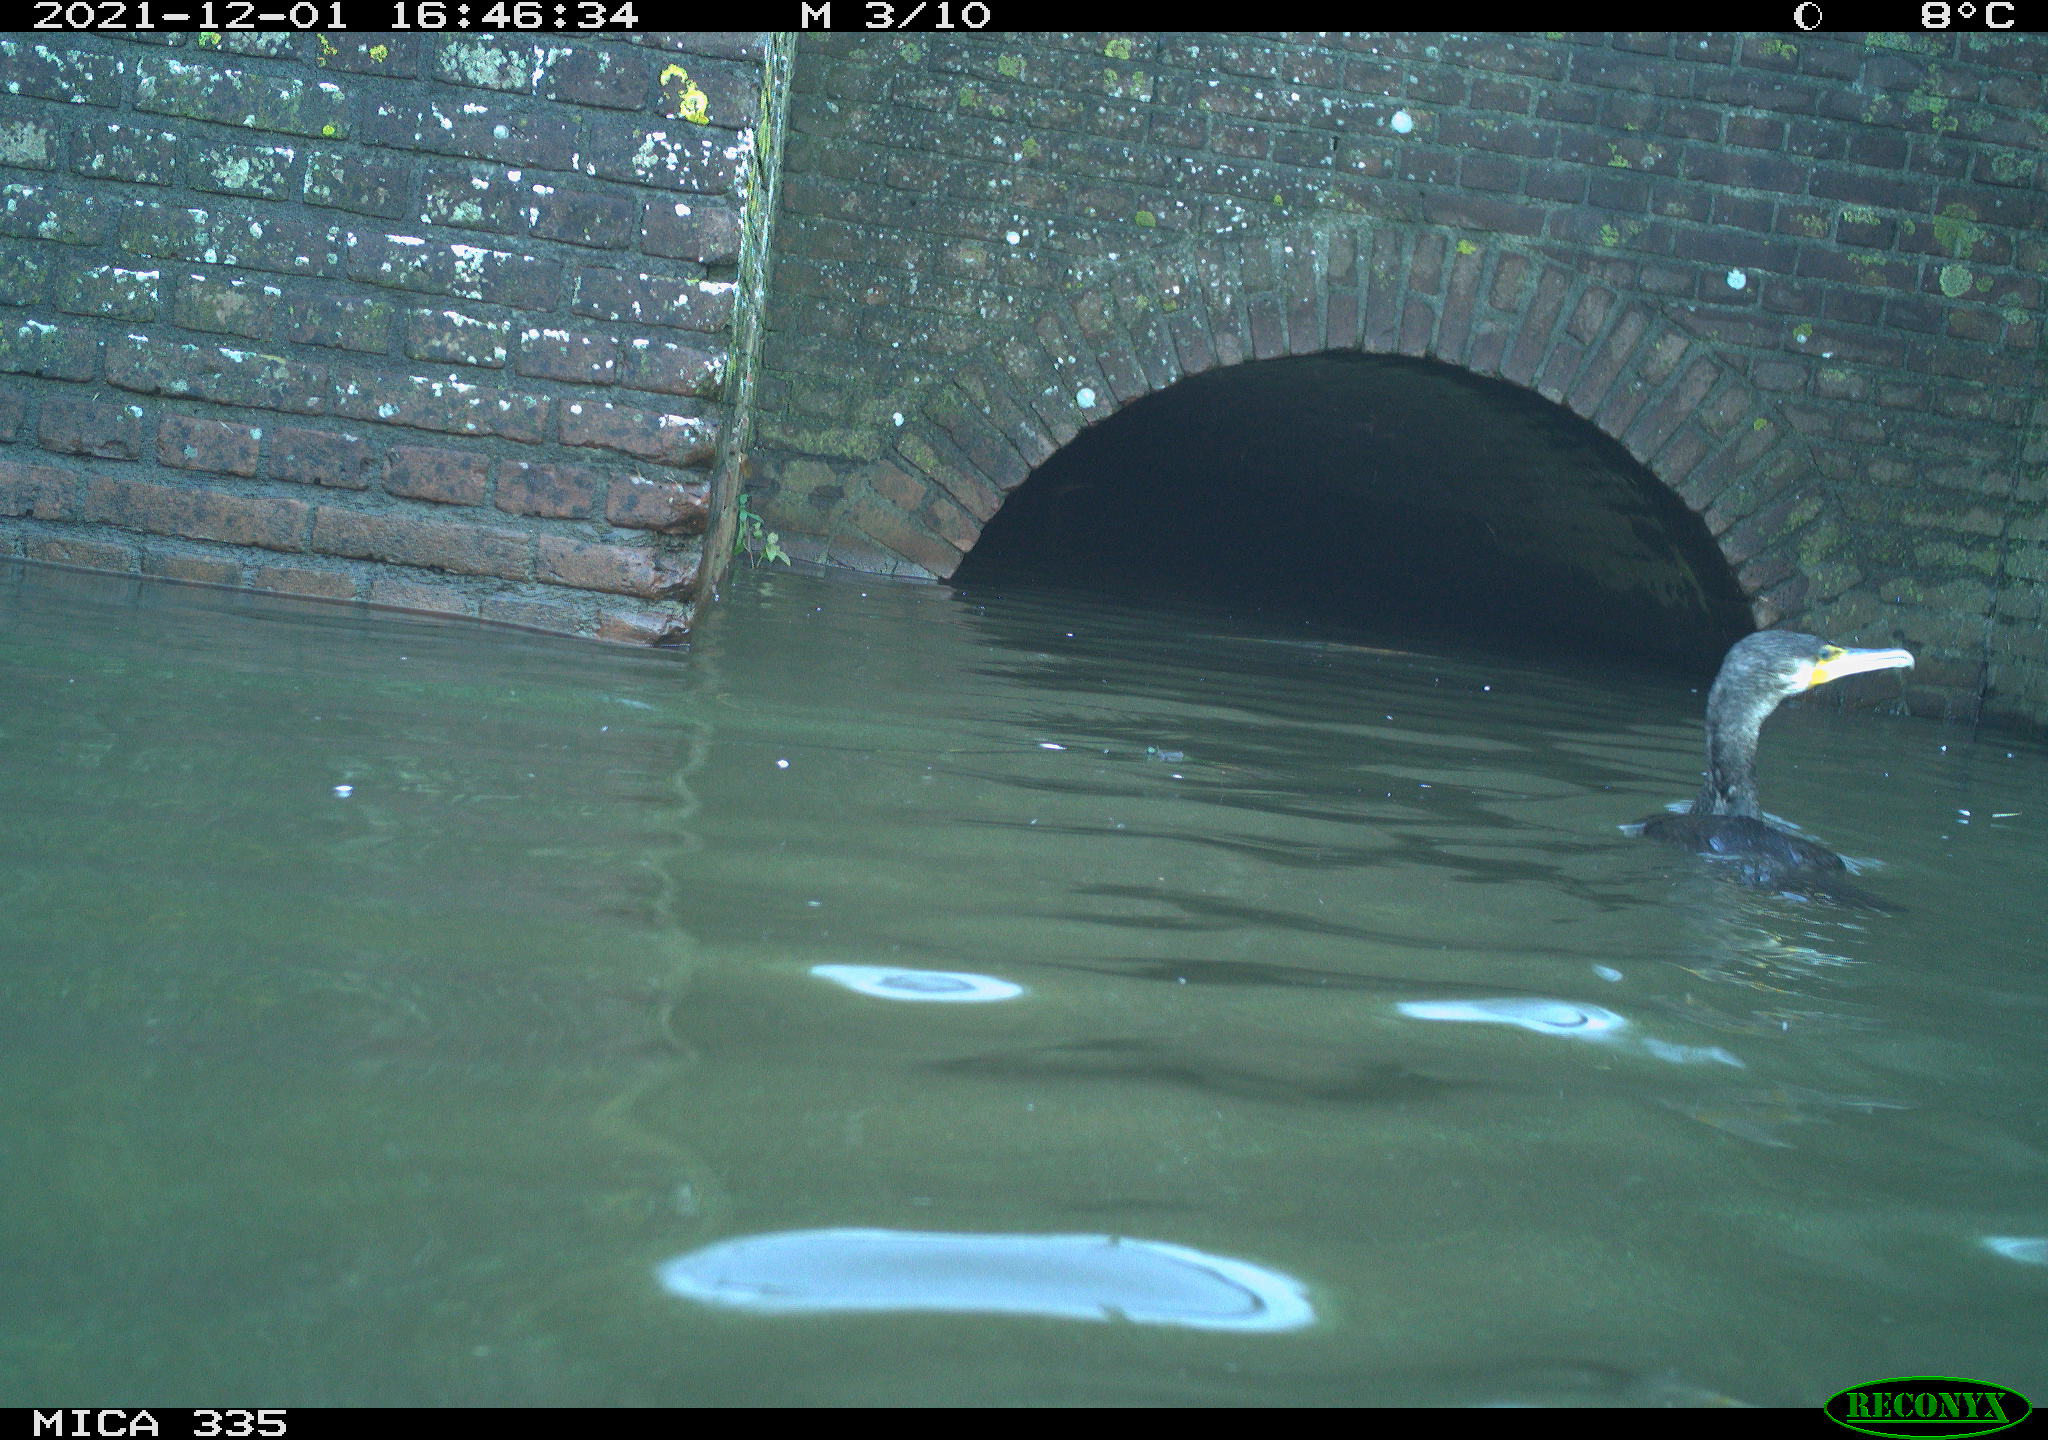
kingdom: Animalia
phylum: Chordata
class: Aves
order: Suliformes
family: Phalacrocoracidae
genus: Phalacrocorax
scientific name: Phalacrocorax carbo
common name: Great cormorant
